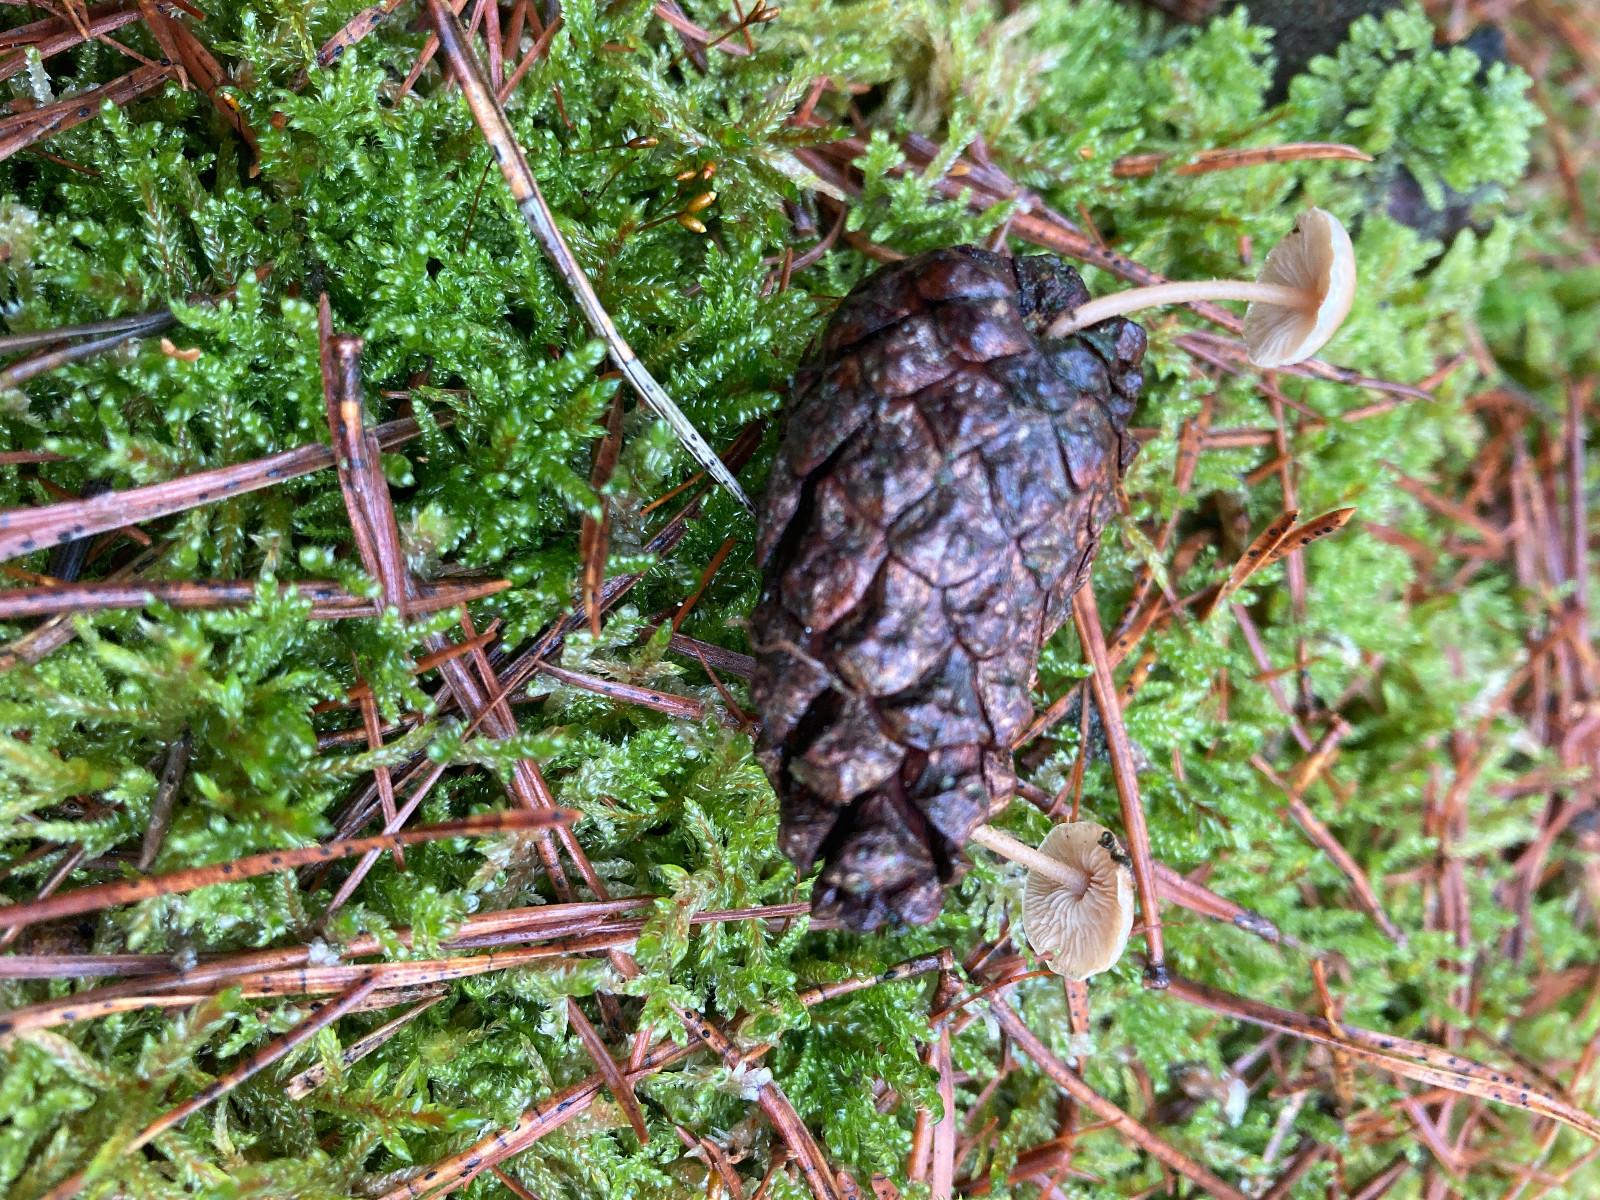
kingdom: Fungi
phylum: Basidiomycota
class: Agaricomycetes
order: Agaricales
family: Marasmiaceae
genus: Baeospora
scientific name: Baeospora myosura
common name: koglebruskhat
